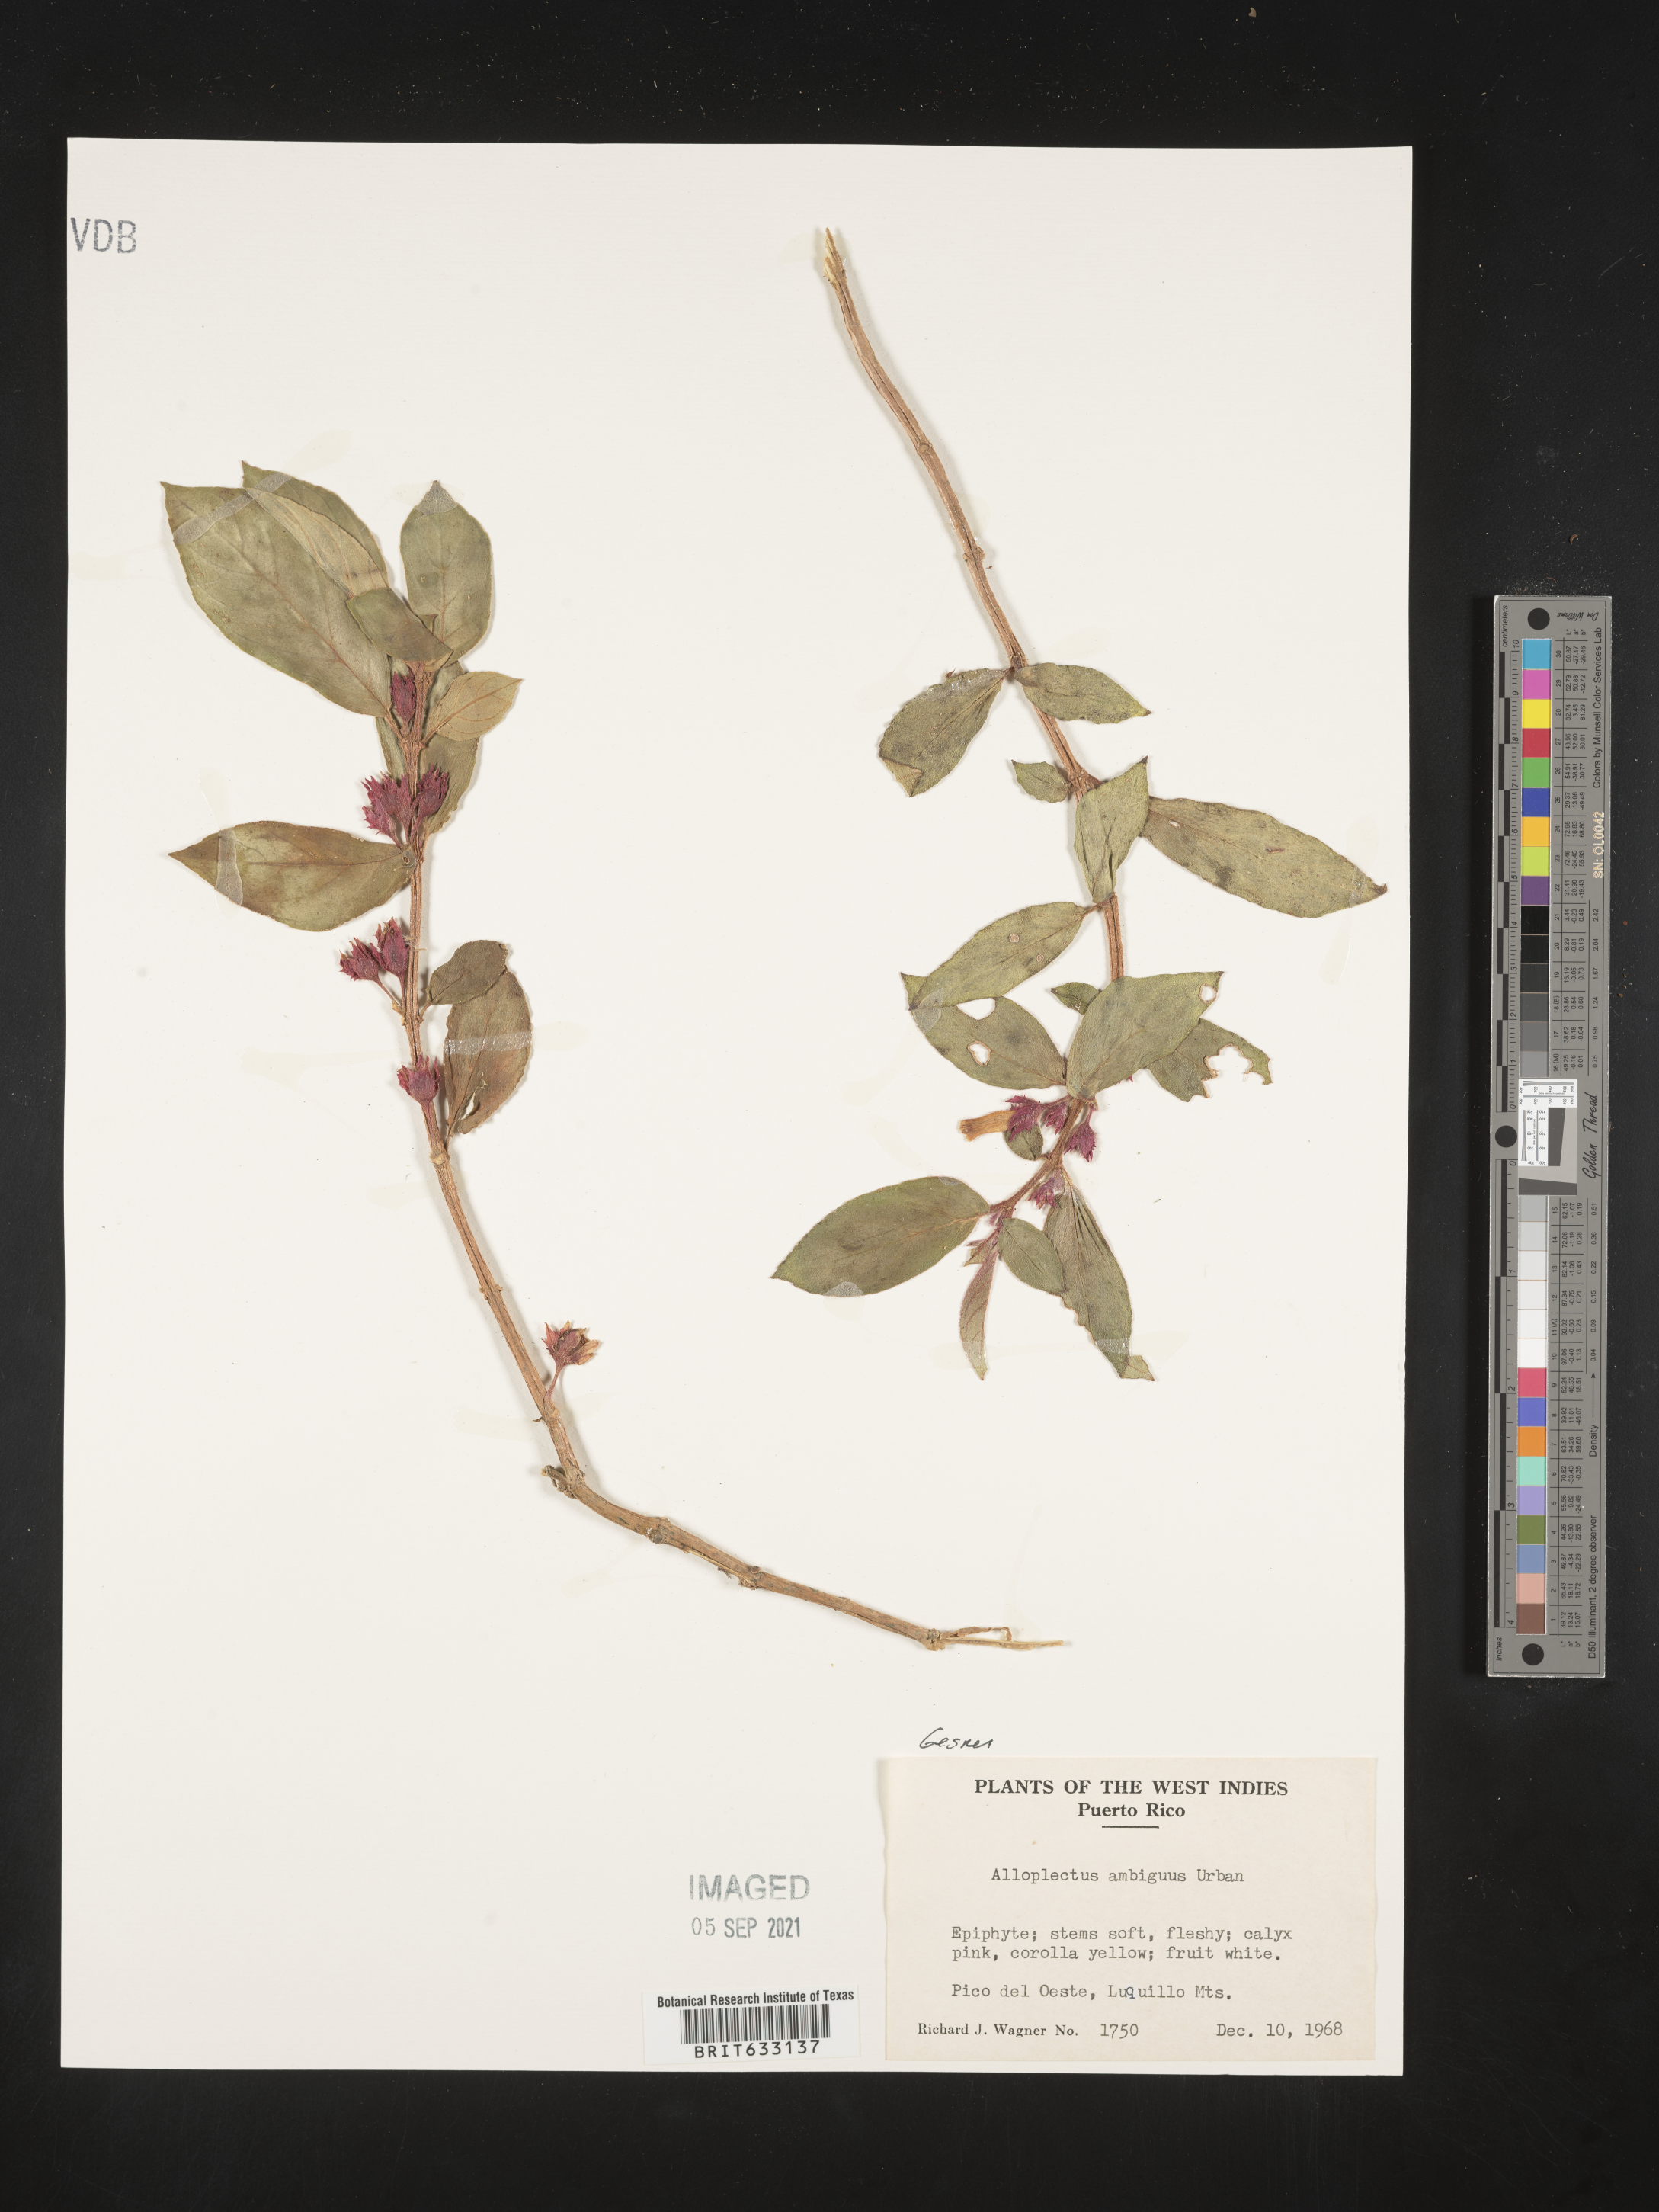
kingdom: Plantae
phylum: Tracheophyta
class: Magnoliopsida
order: Lamiales
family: Gesneriaceae
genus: Alloplectus
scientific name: Alloplectus
